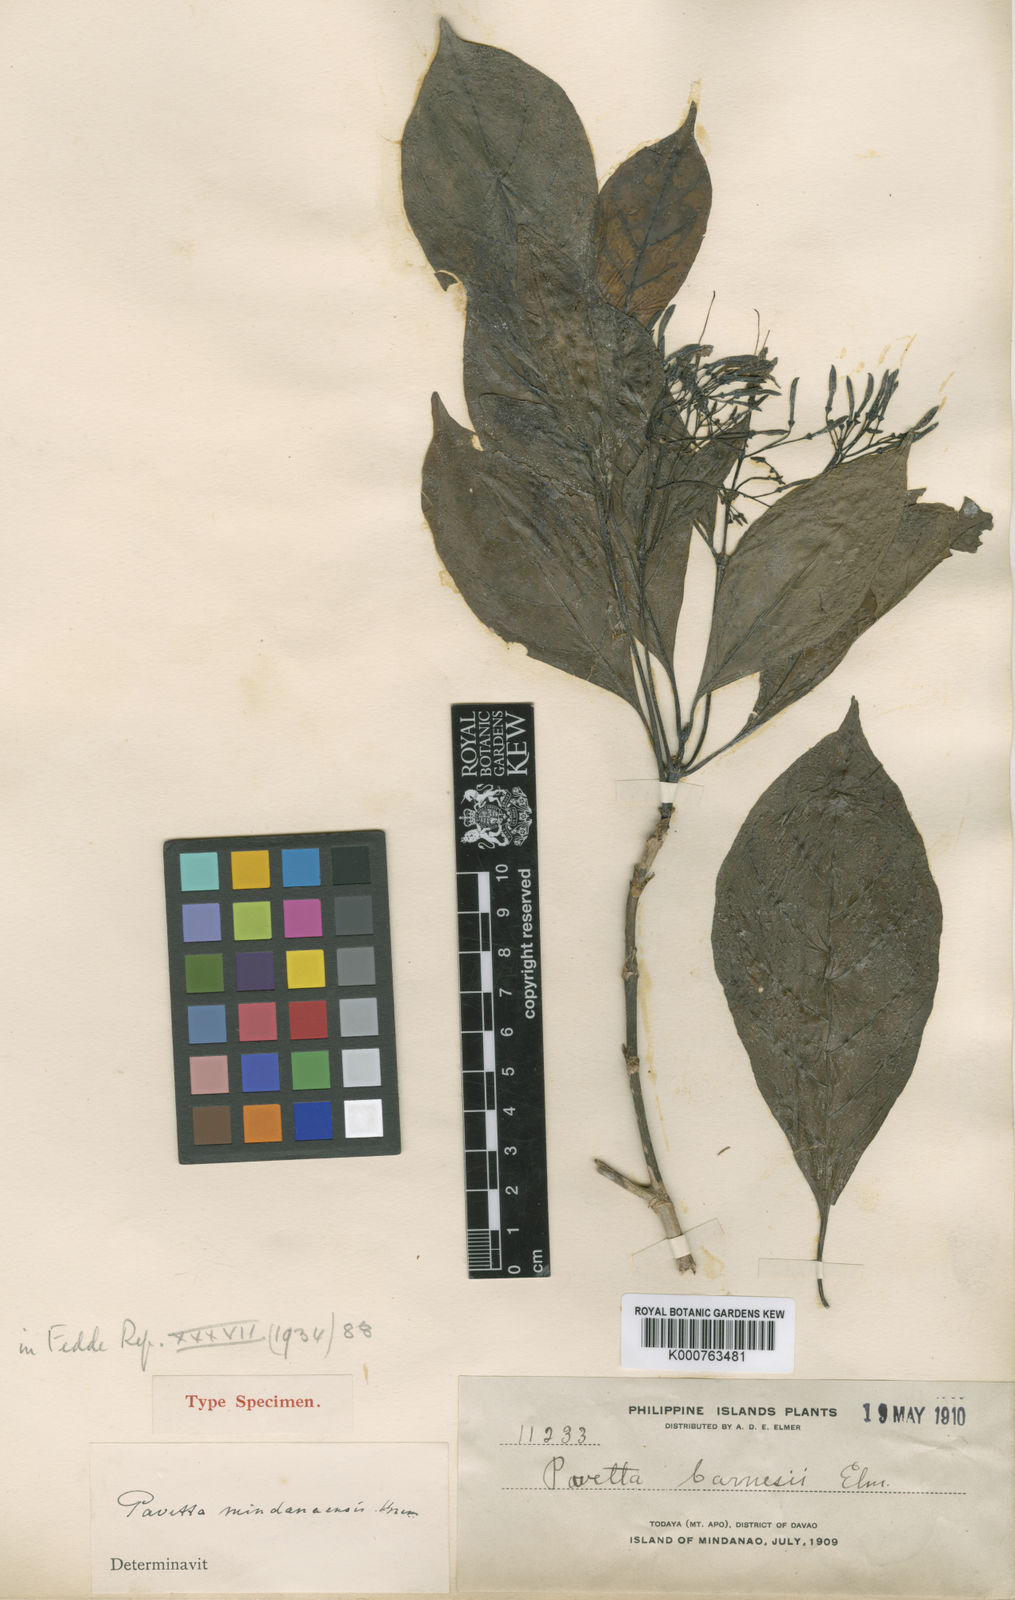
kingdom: Plantae
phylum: Tracheophyta
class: Magnoliopsida
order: Gentianales
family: Rubiaceae
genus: Pavetta
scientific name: Pavetta mindanaensis
